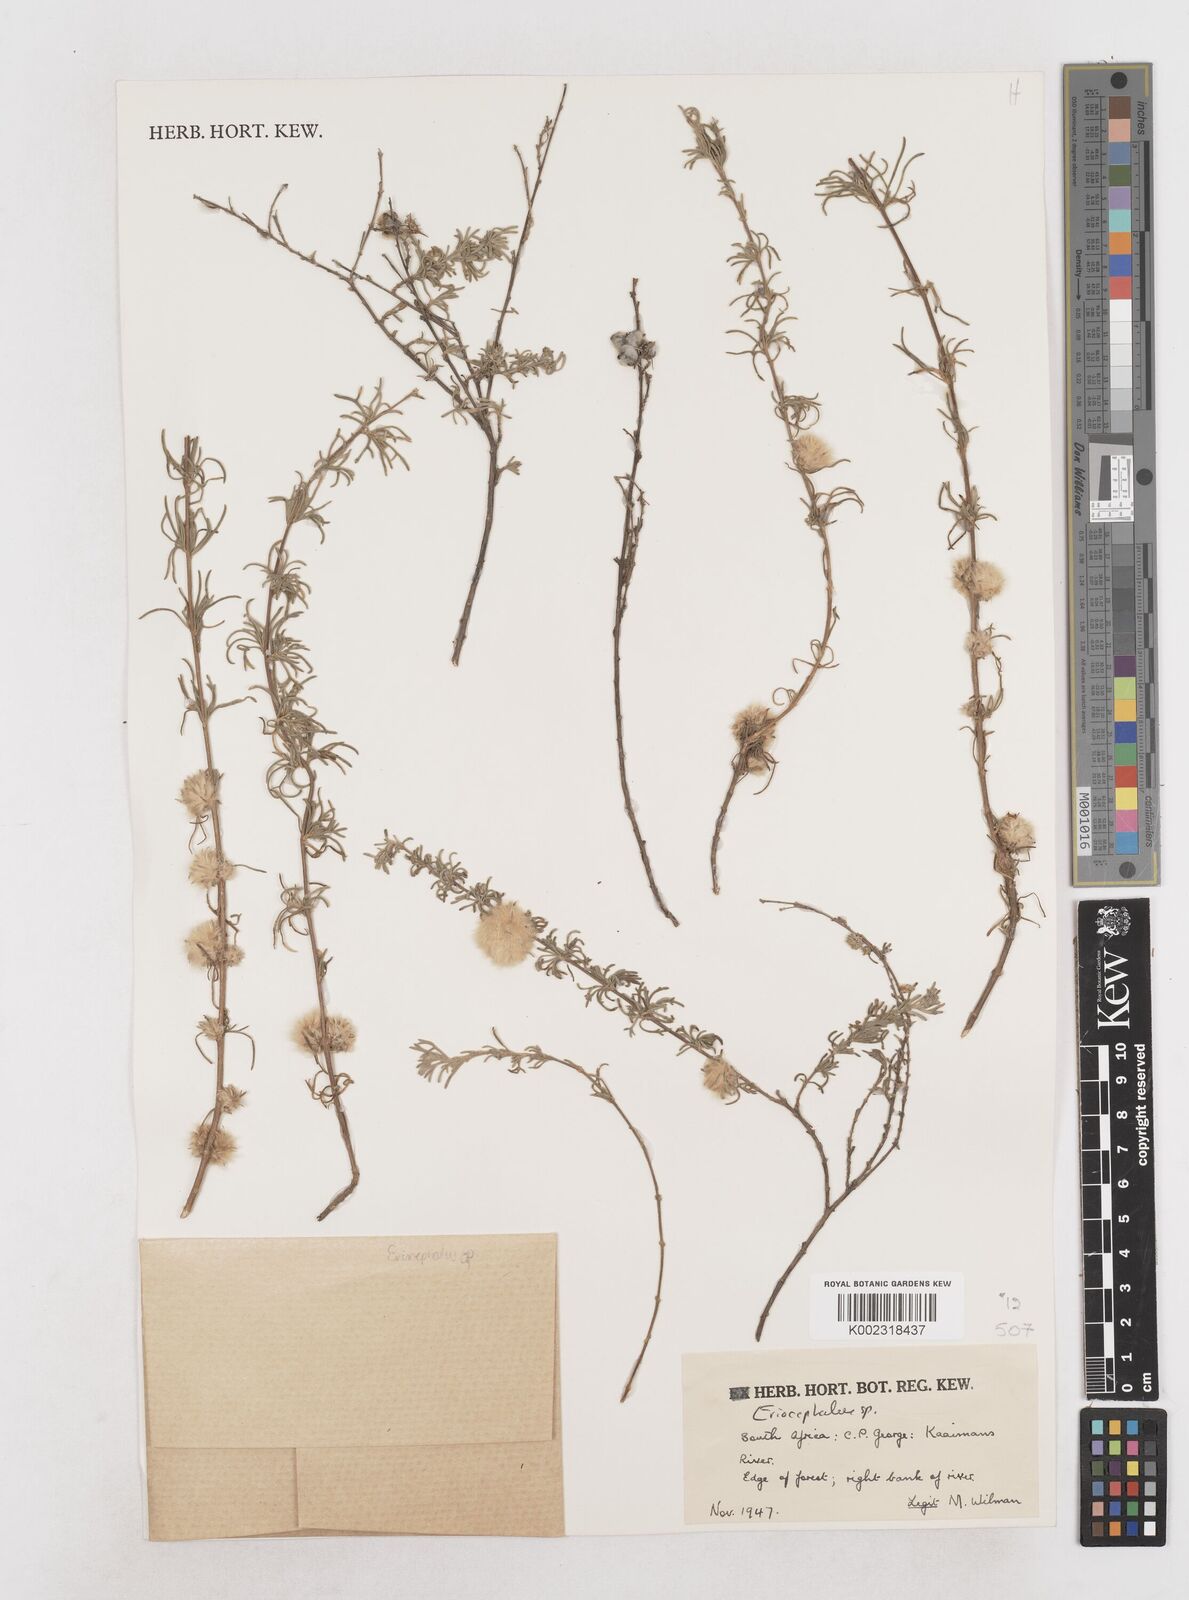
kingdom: Plantae
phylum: Tracheophyta
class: Magnoliopsida
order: Asterales
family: Asteraceae
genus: Eriocephalus
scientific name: Eriocephalus
